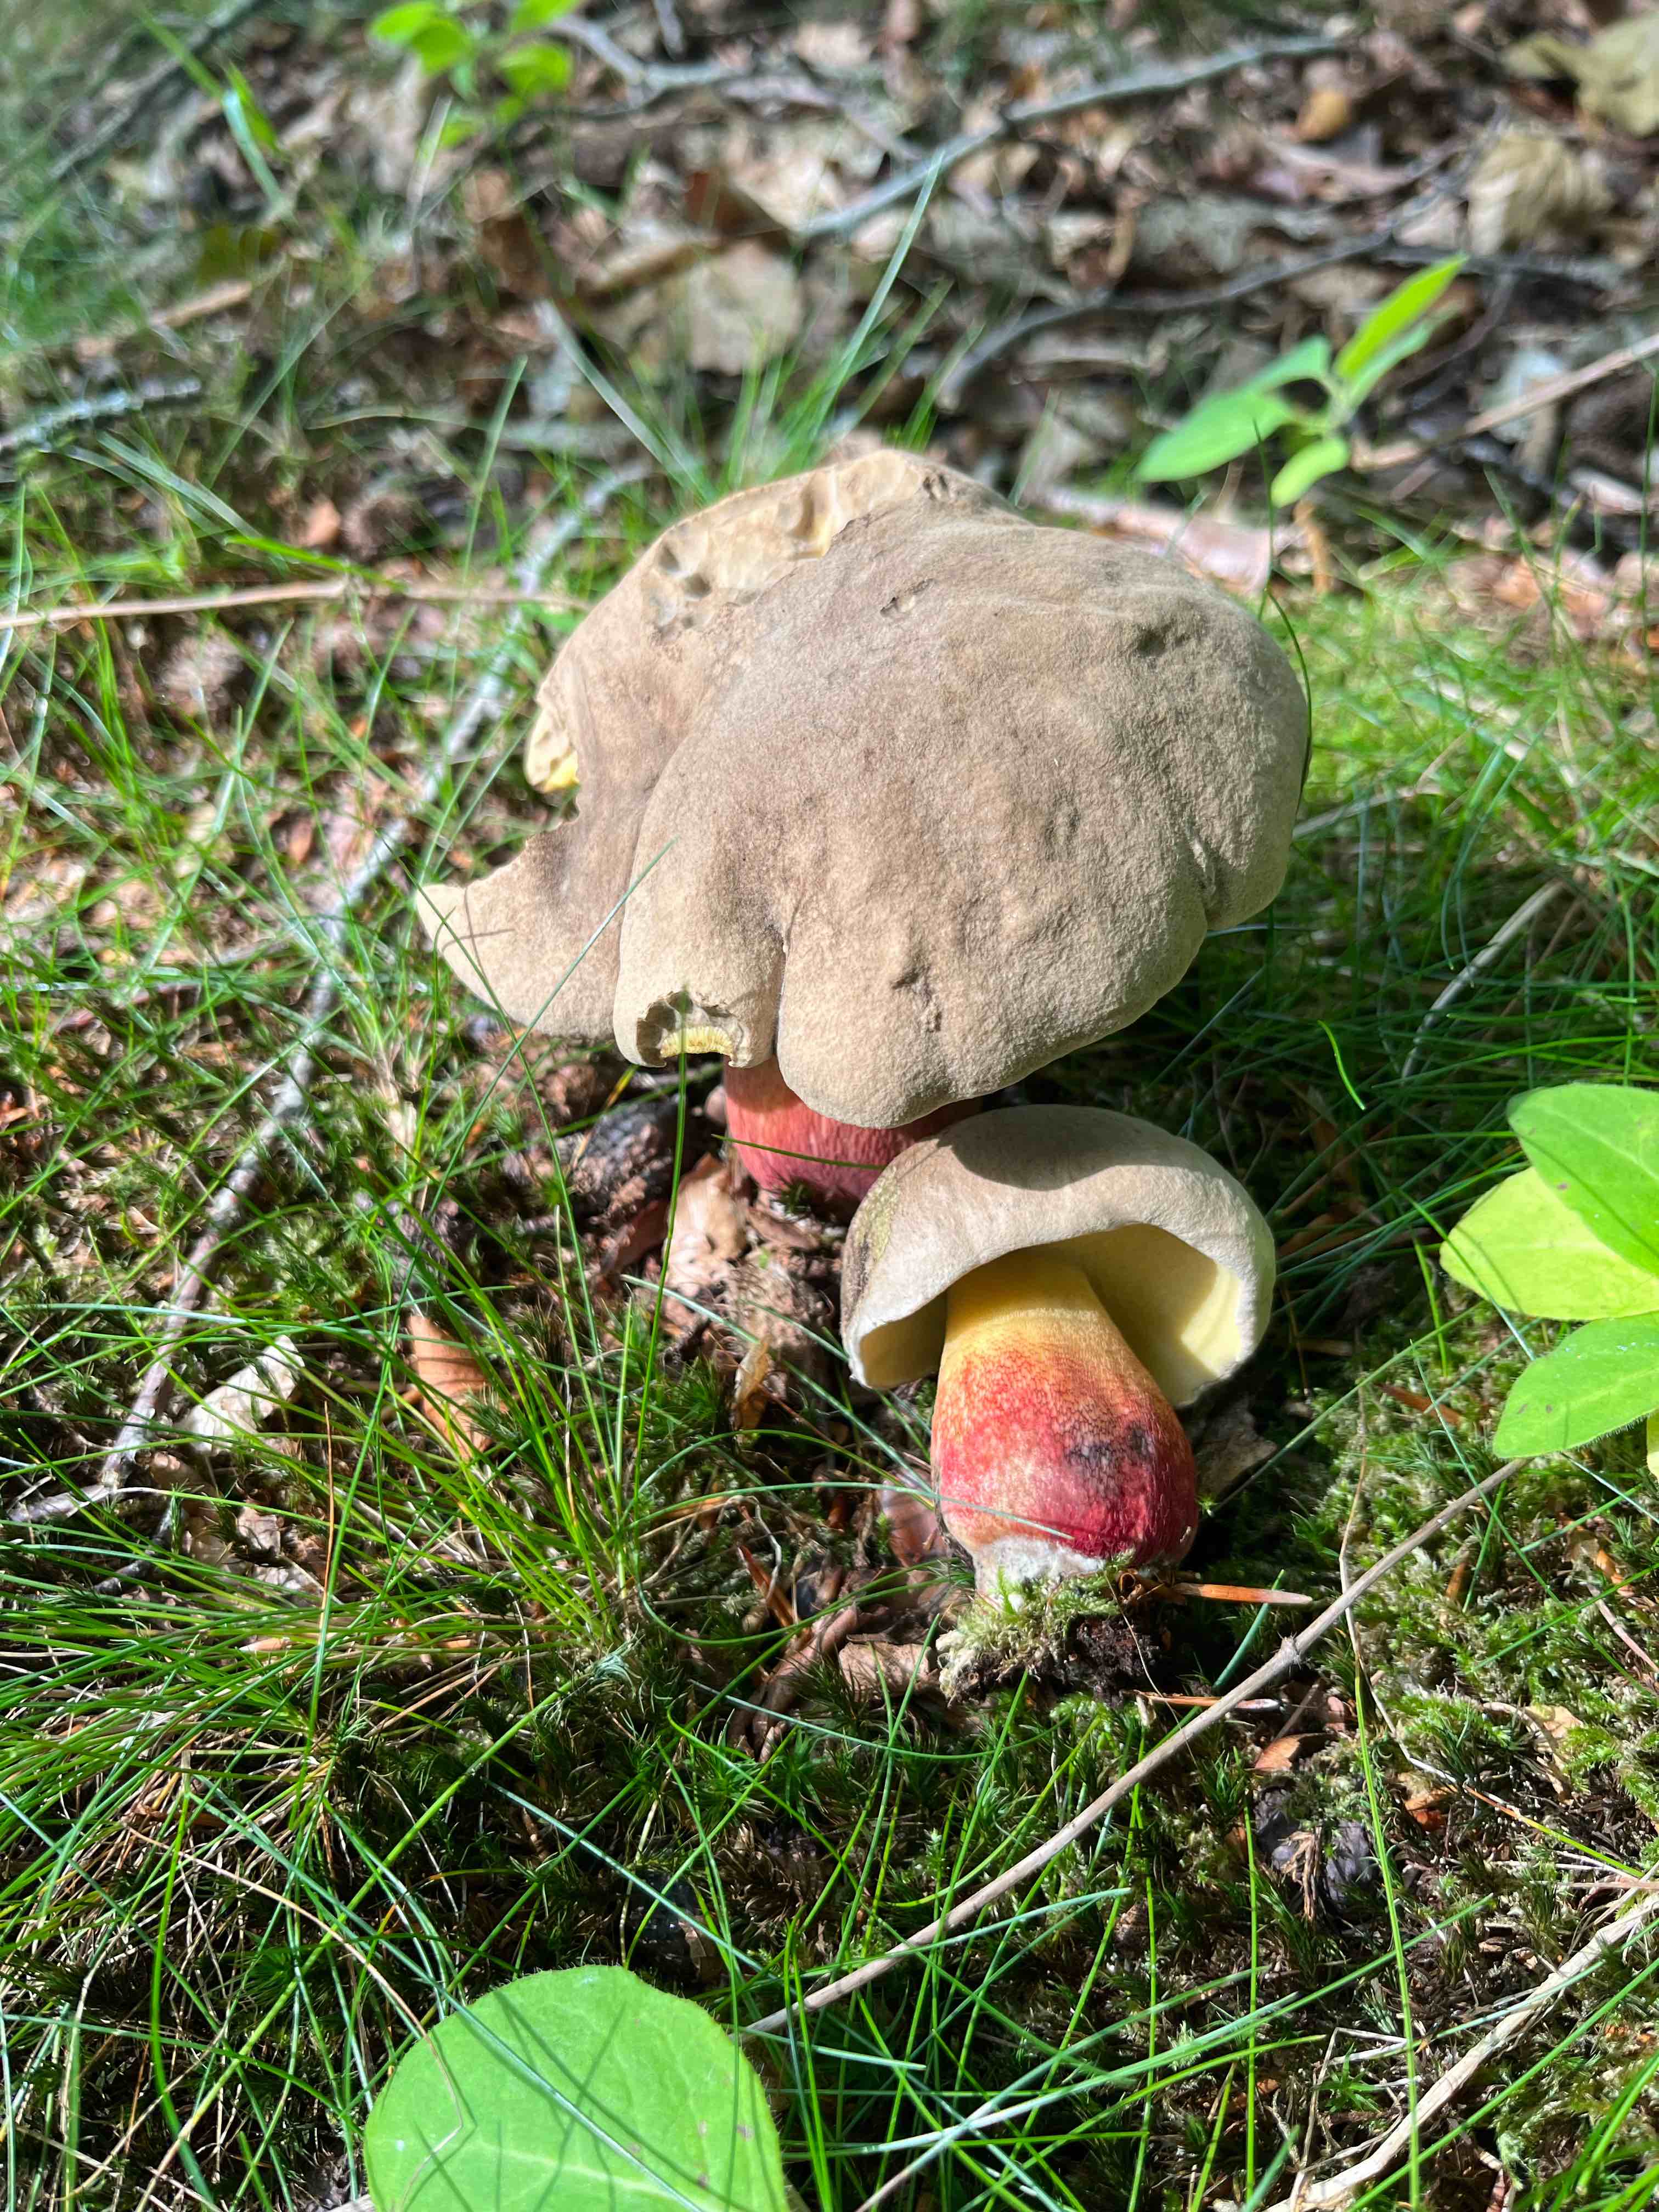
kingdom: Fungi
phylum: Basidiomycota
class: Agaricomycetes
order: Boletales
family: Boletaceae
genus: Caloboletus
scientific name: Caloboletus calopus
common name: skønfodet rørhat
